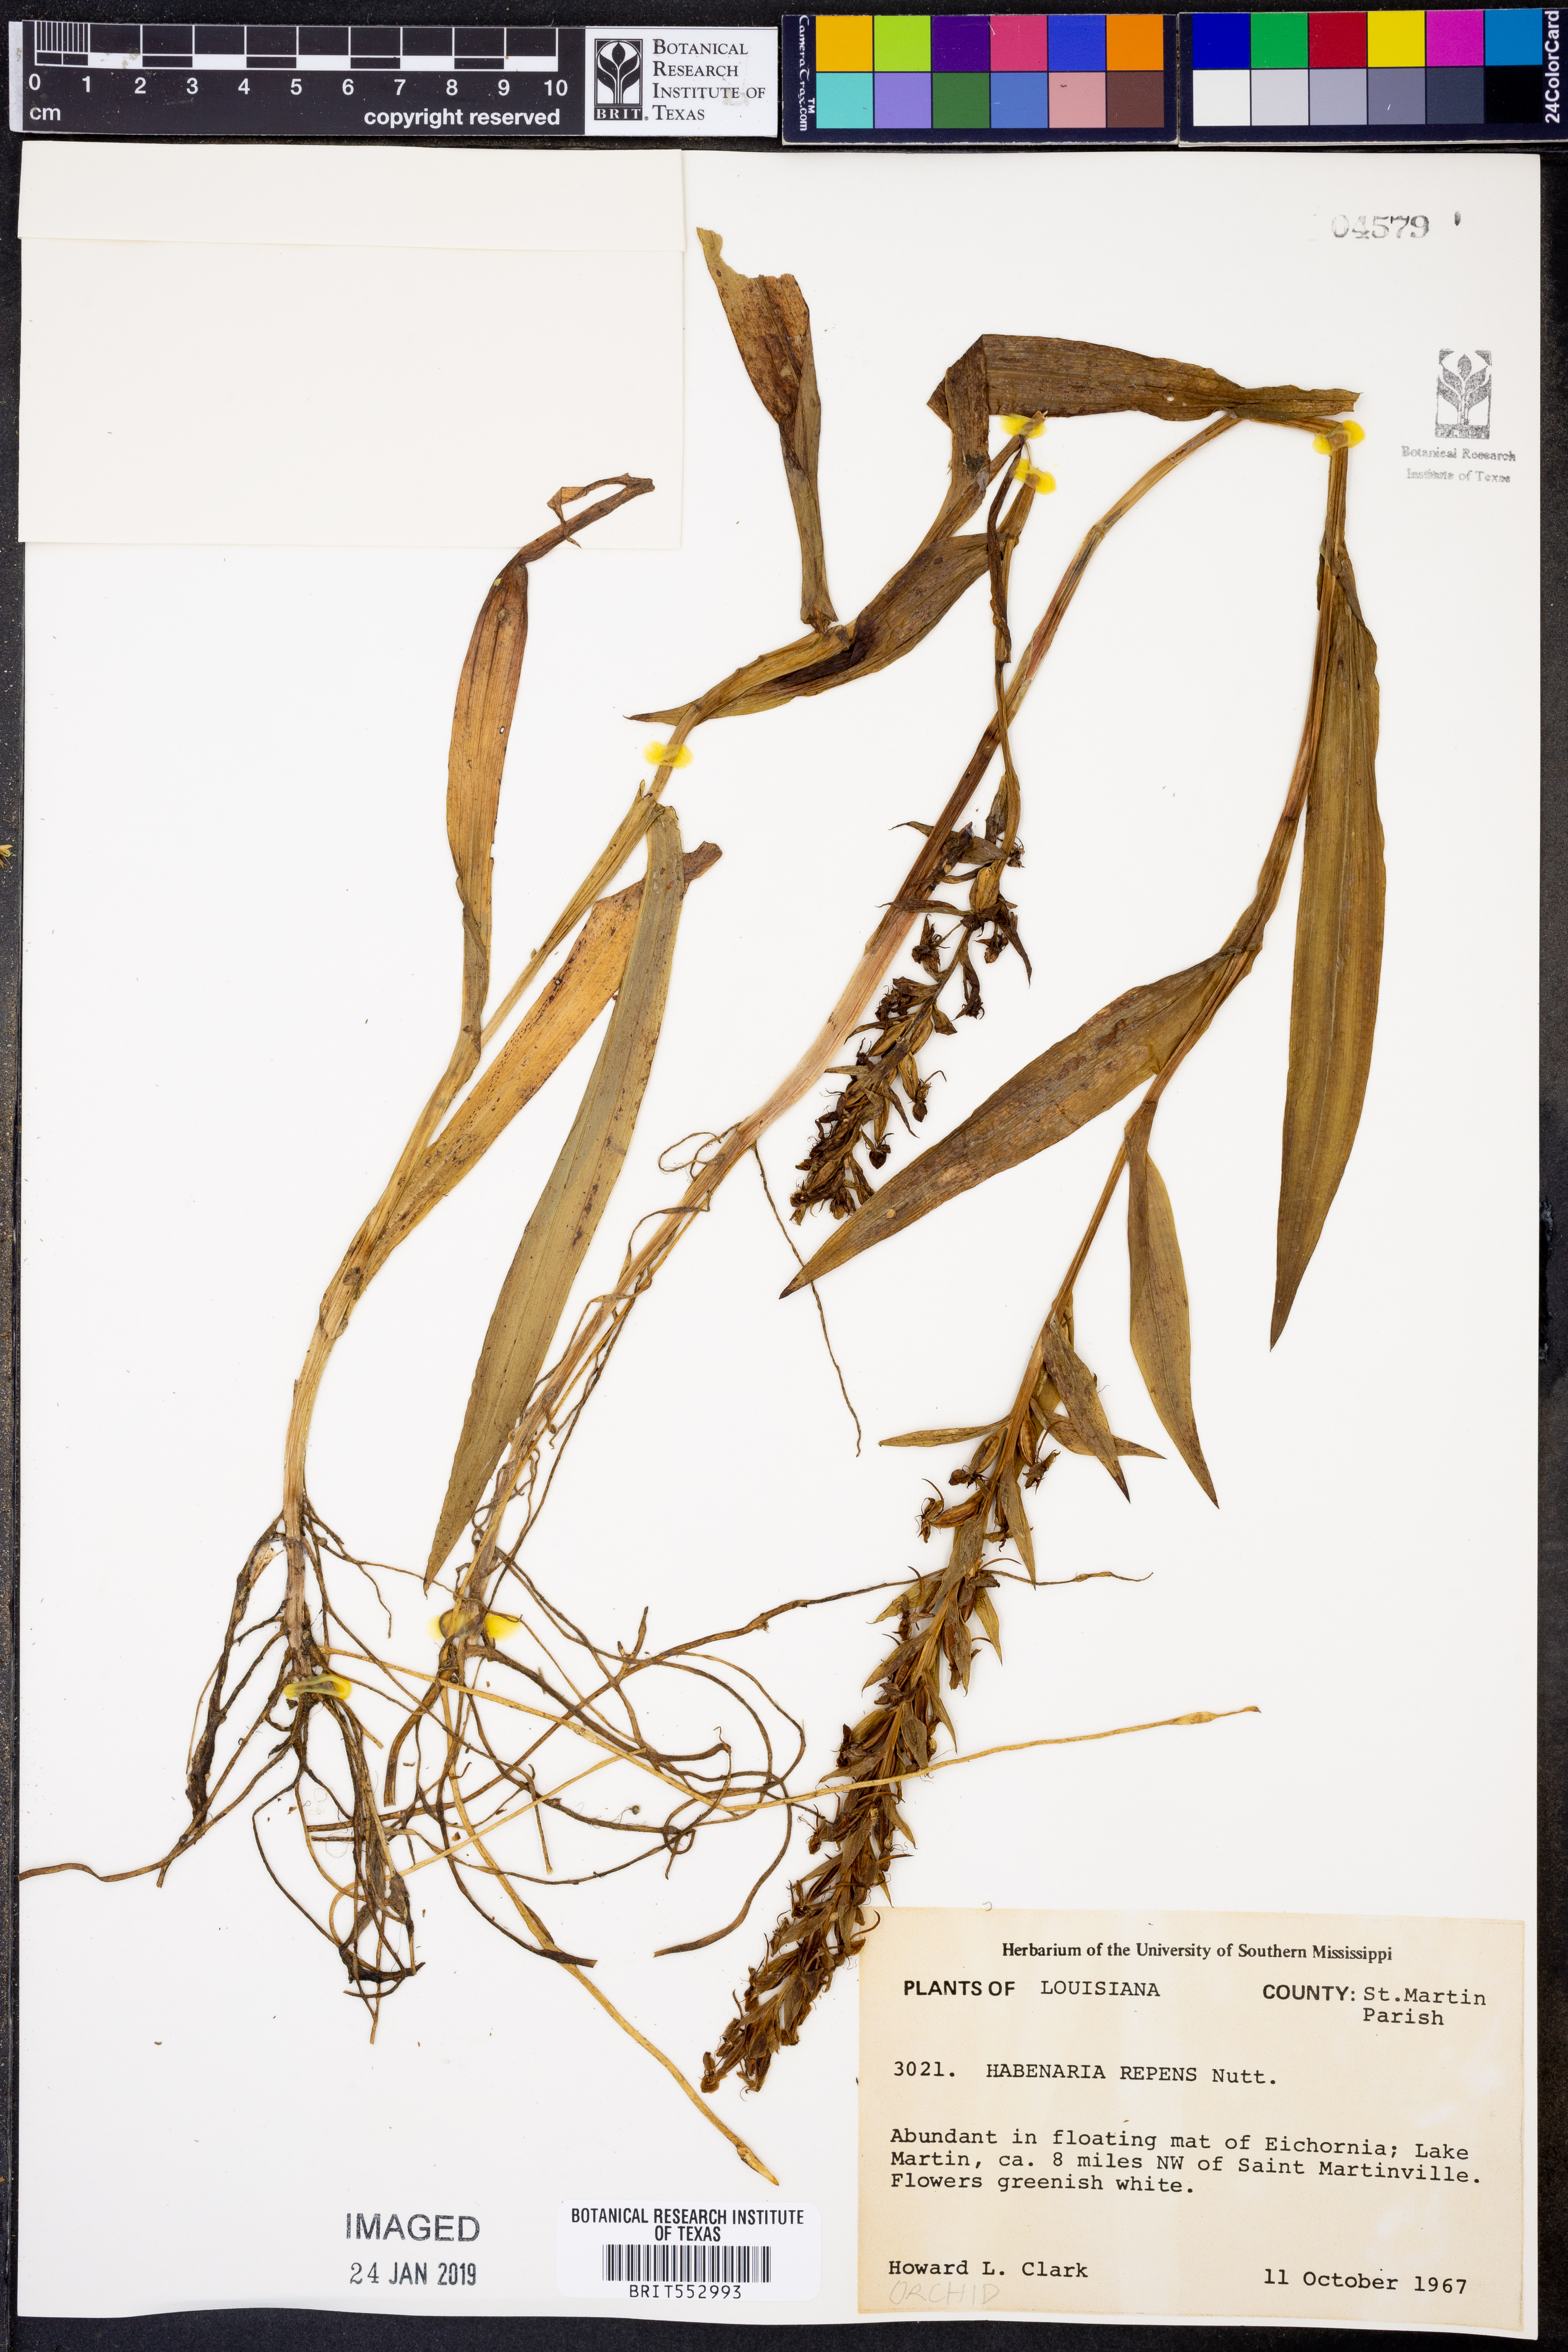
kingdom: Plantae
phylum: Tracheophyta
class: Liliopsida
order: Asparagales
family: Orchidaceae
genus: Habenaria
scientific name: Habenaria repens
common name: Water orchid
